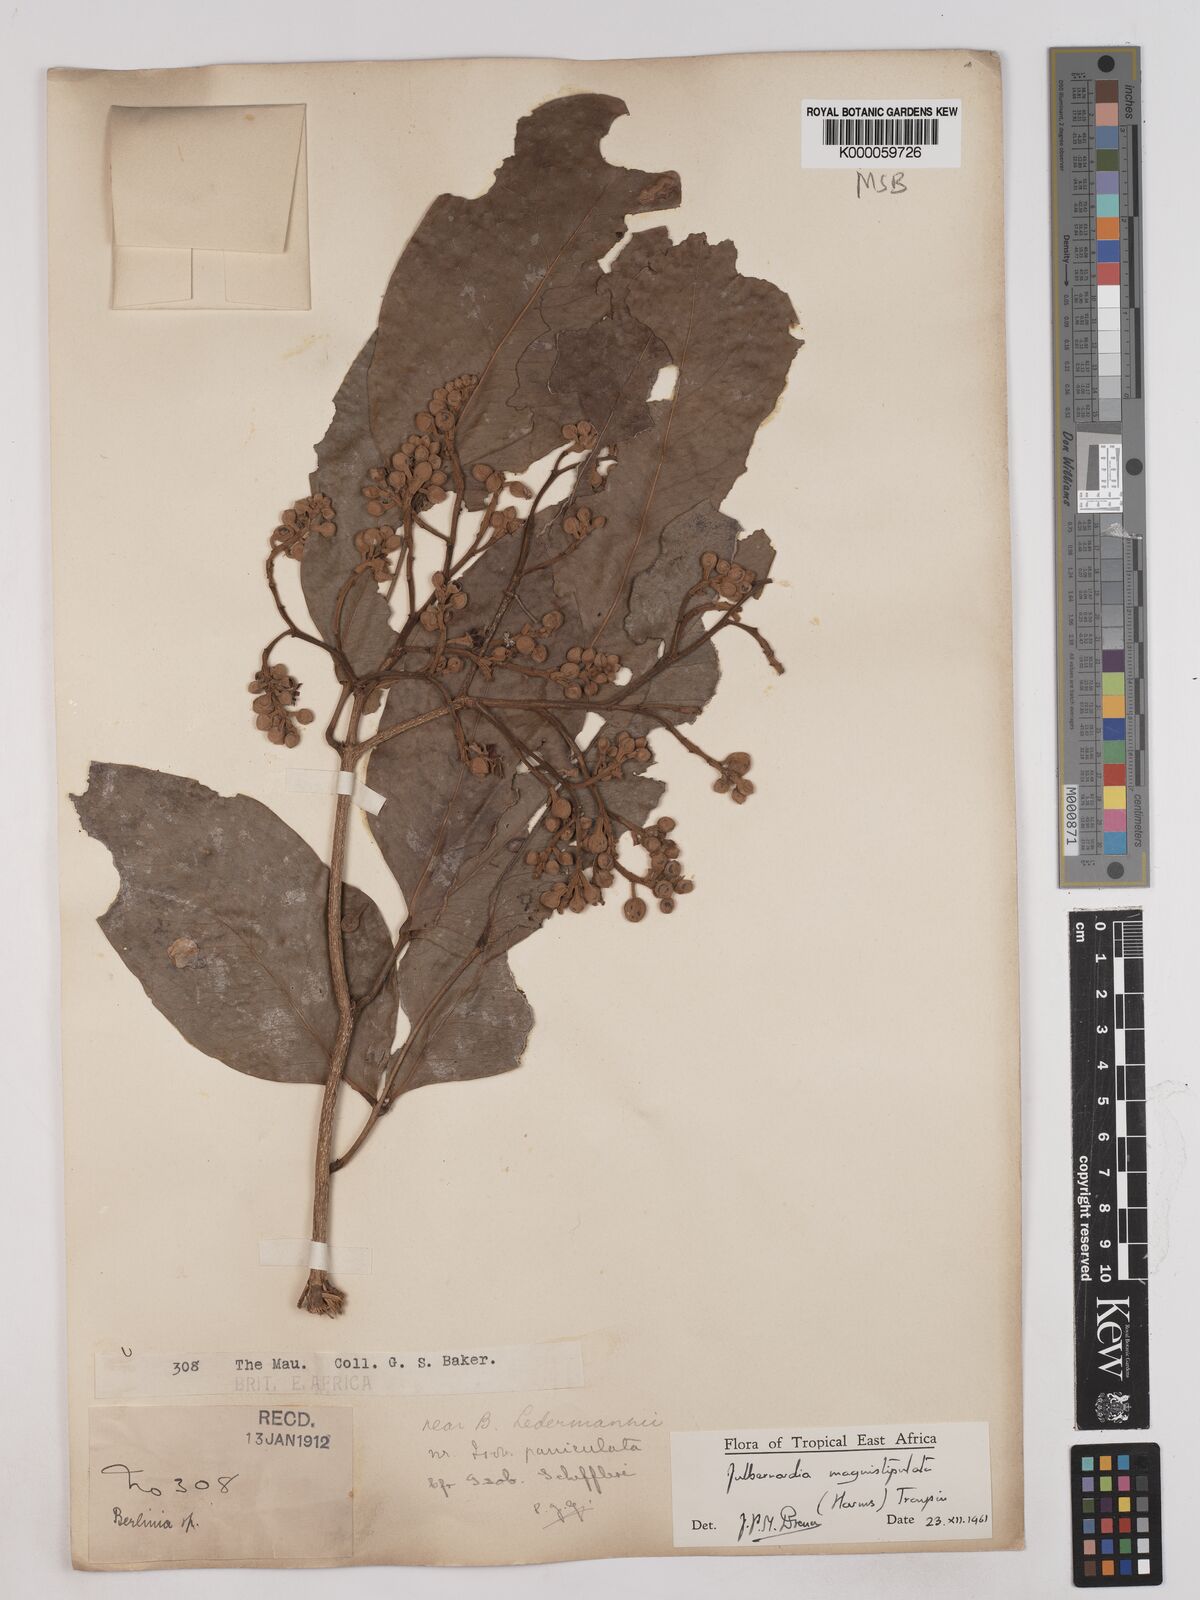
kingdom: Plantae
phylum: Tracheophyta
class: Magnoliopsida
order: Fabales
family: Fabaceae
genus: Julbernardia
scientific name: Julbernardia magnistipulata
